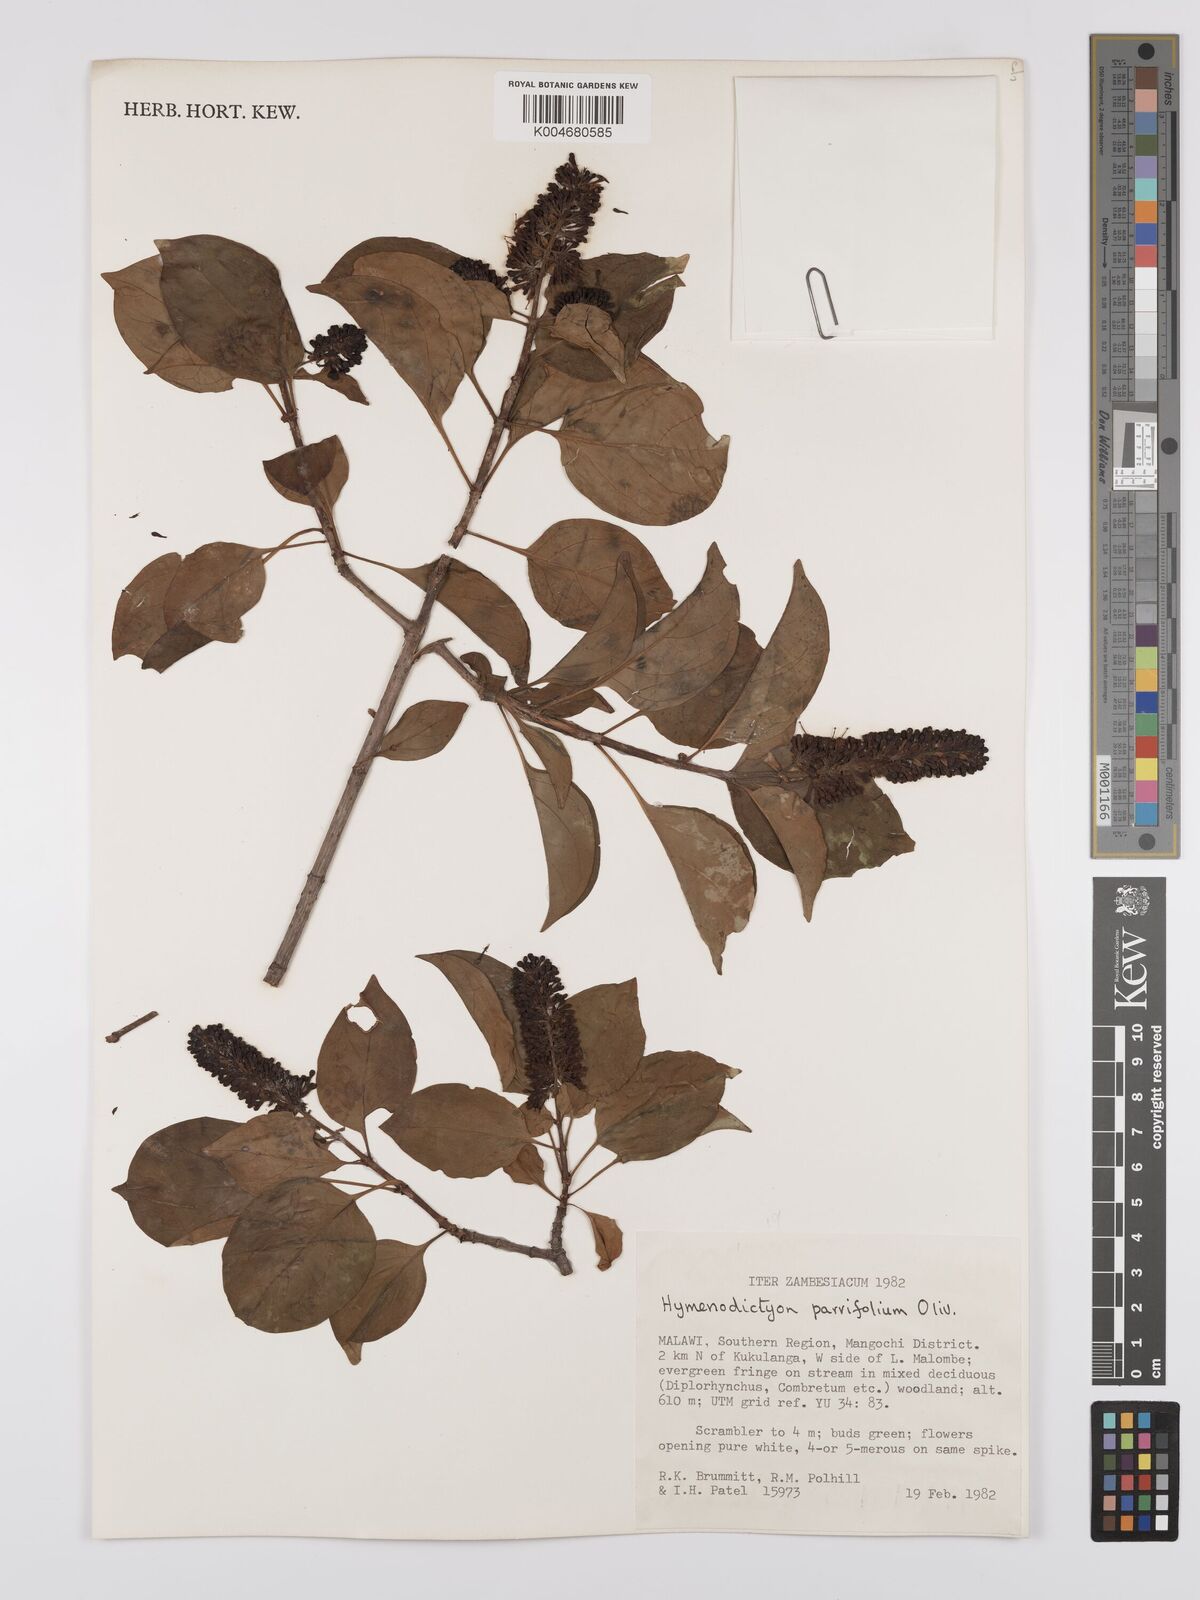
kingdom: Plantae
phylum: Tracheophyta
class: Magnoliopsida
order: Gentianales
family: Rubiaceae
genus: Hymenodictyon
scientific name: Hymenodictyon parvifolium
